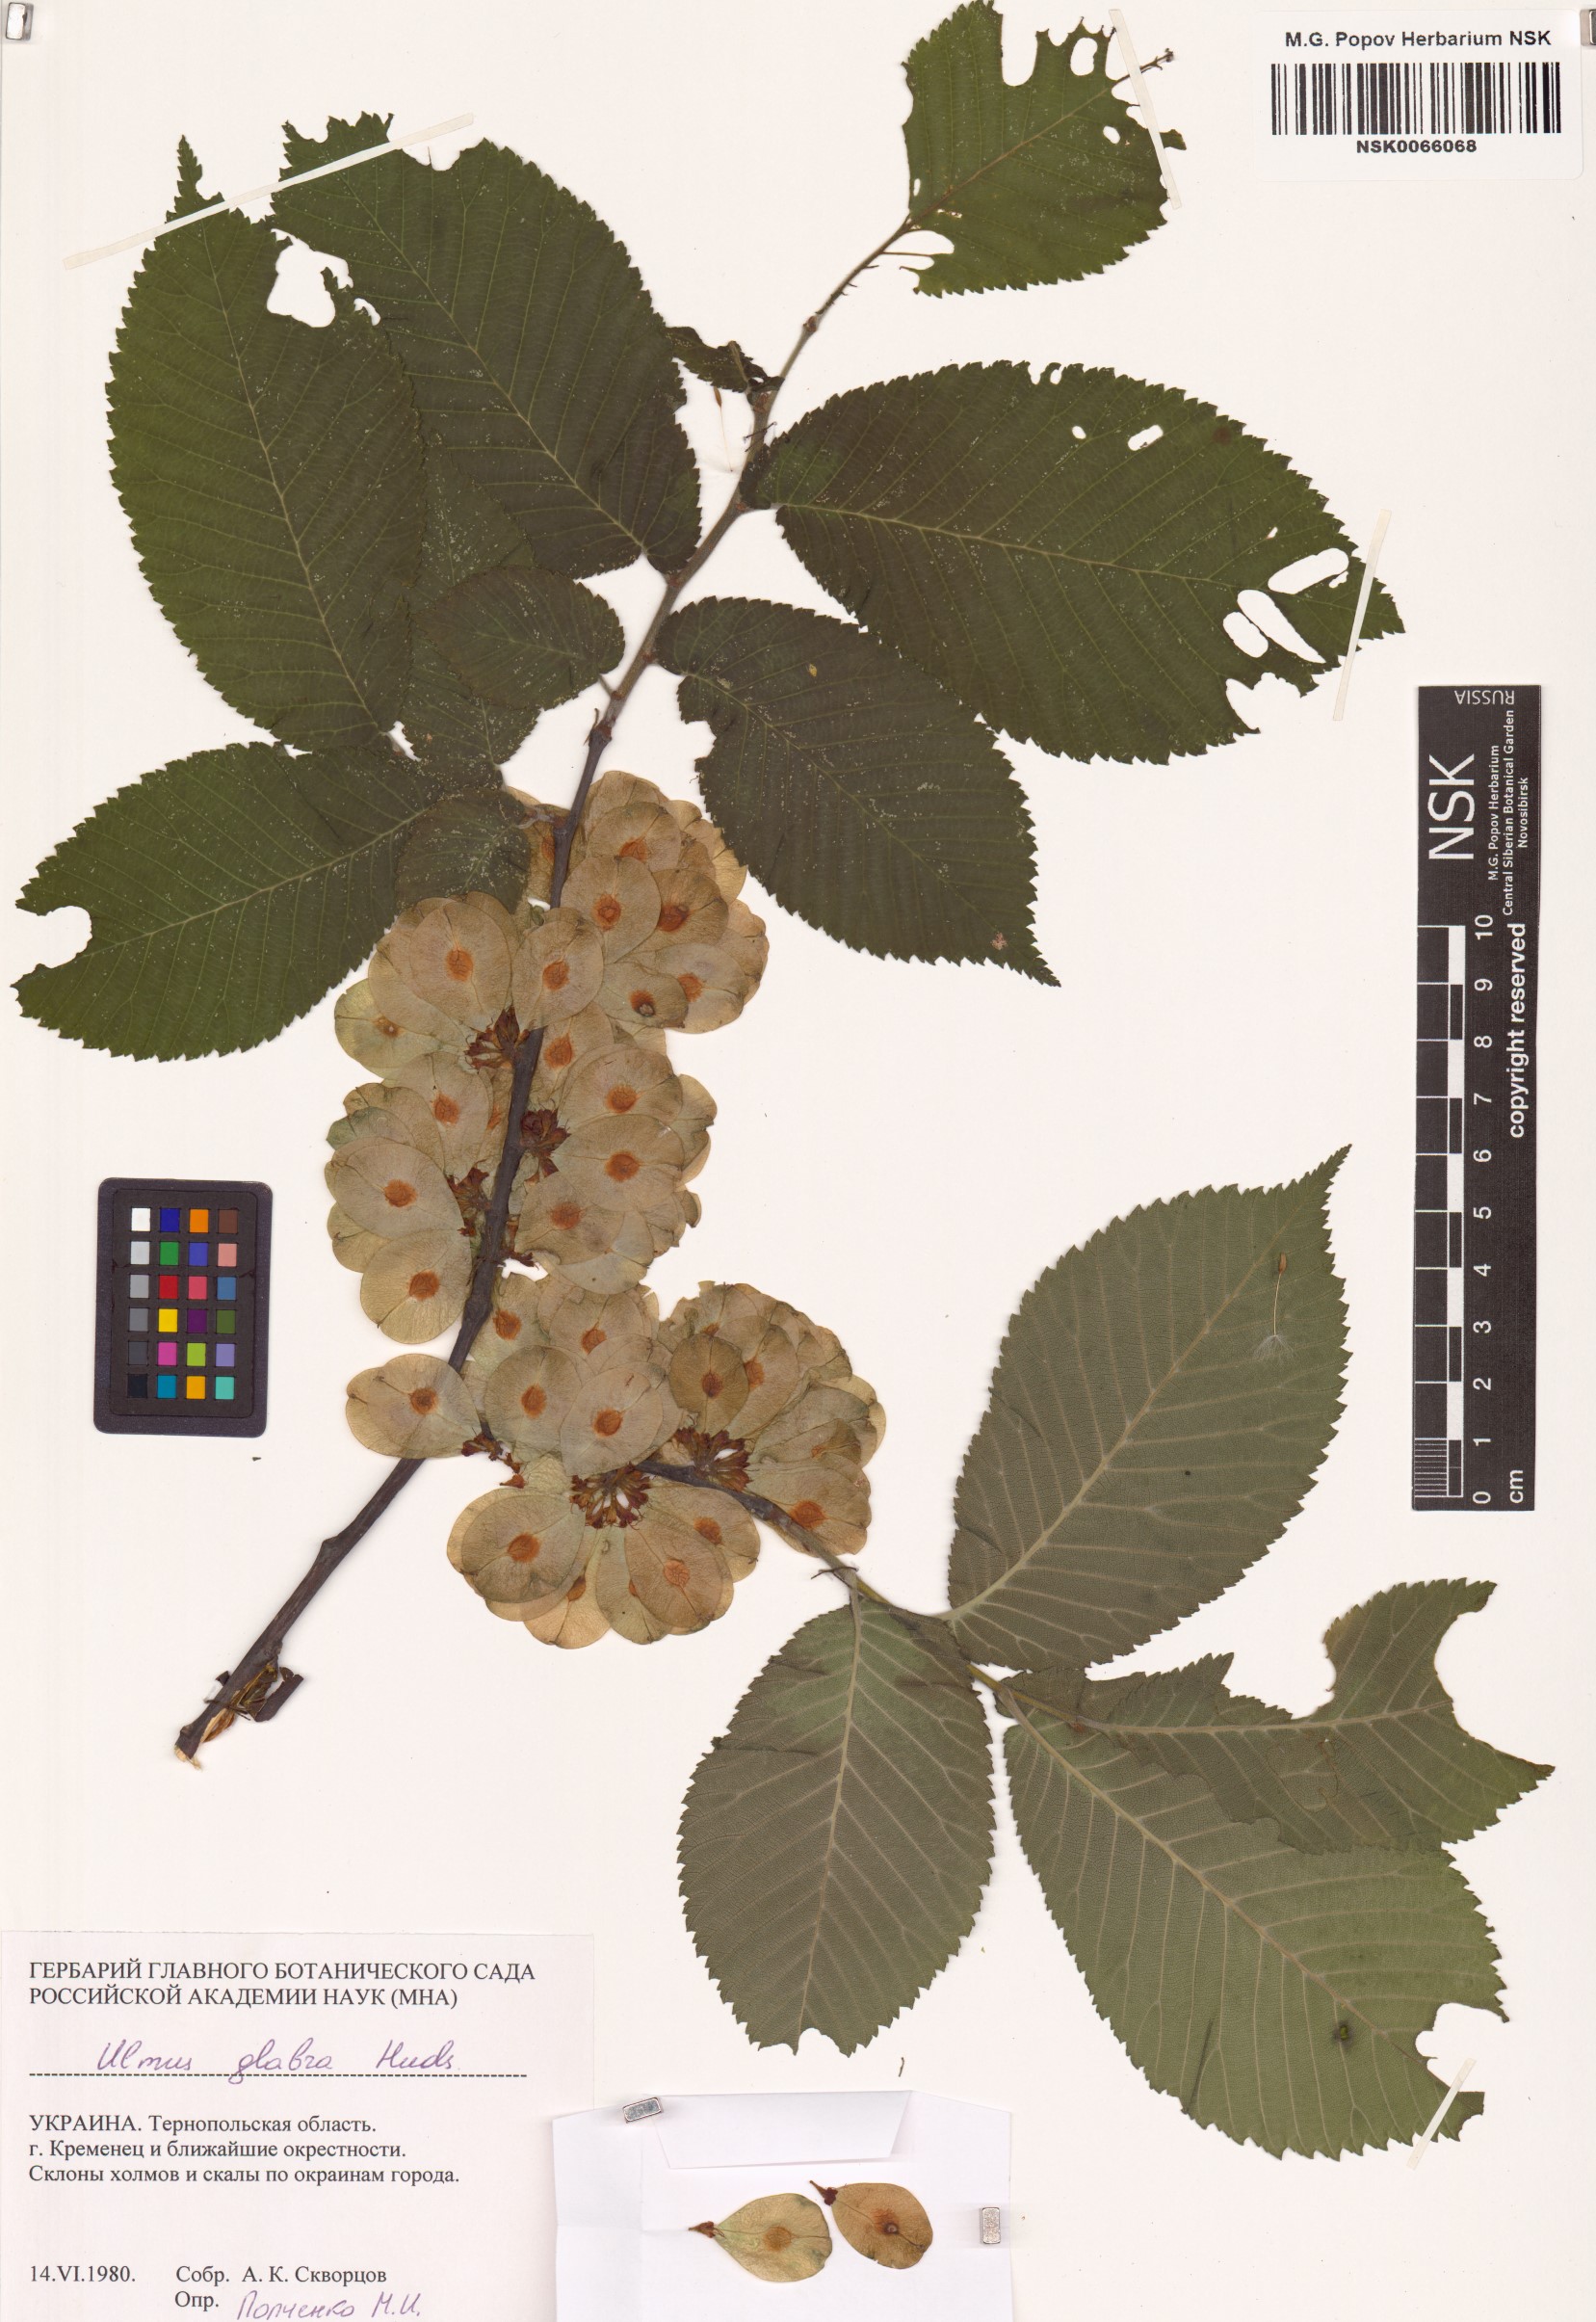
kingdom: Plantae
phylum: Tracheophyta
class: Magnoliopsida
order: Rosales
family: Ulmaceae
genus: Ulmus
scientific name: Ulmus glabra
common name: Wych elm
